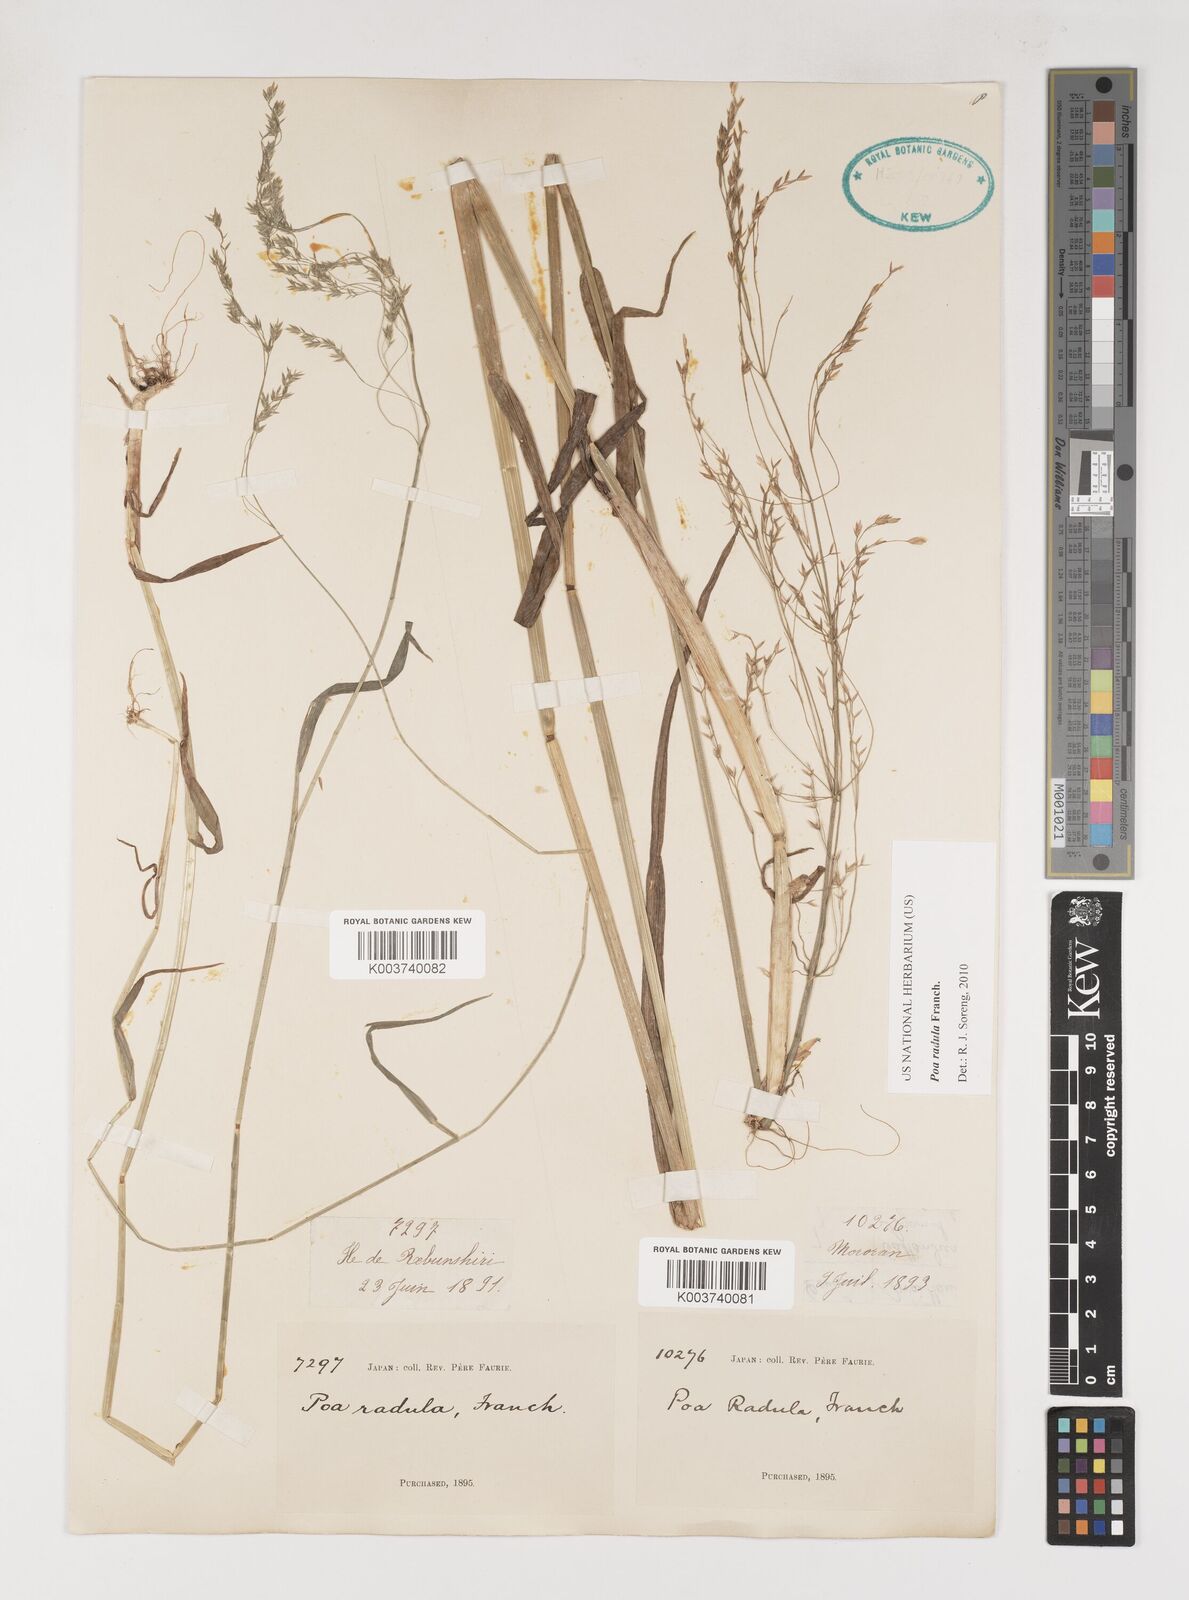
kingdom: Plantae
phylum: Tracheophyta
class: Liliopsida
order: Poales
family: Poaceae
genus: Poa
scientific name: Poa radula
